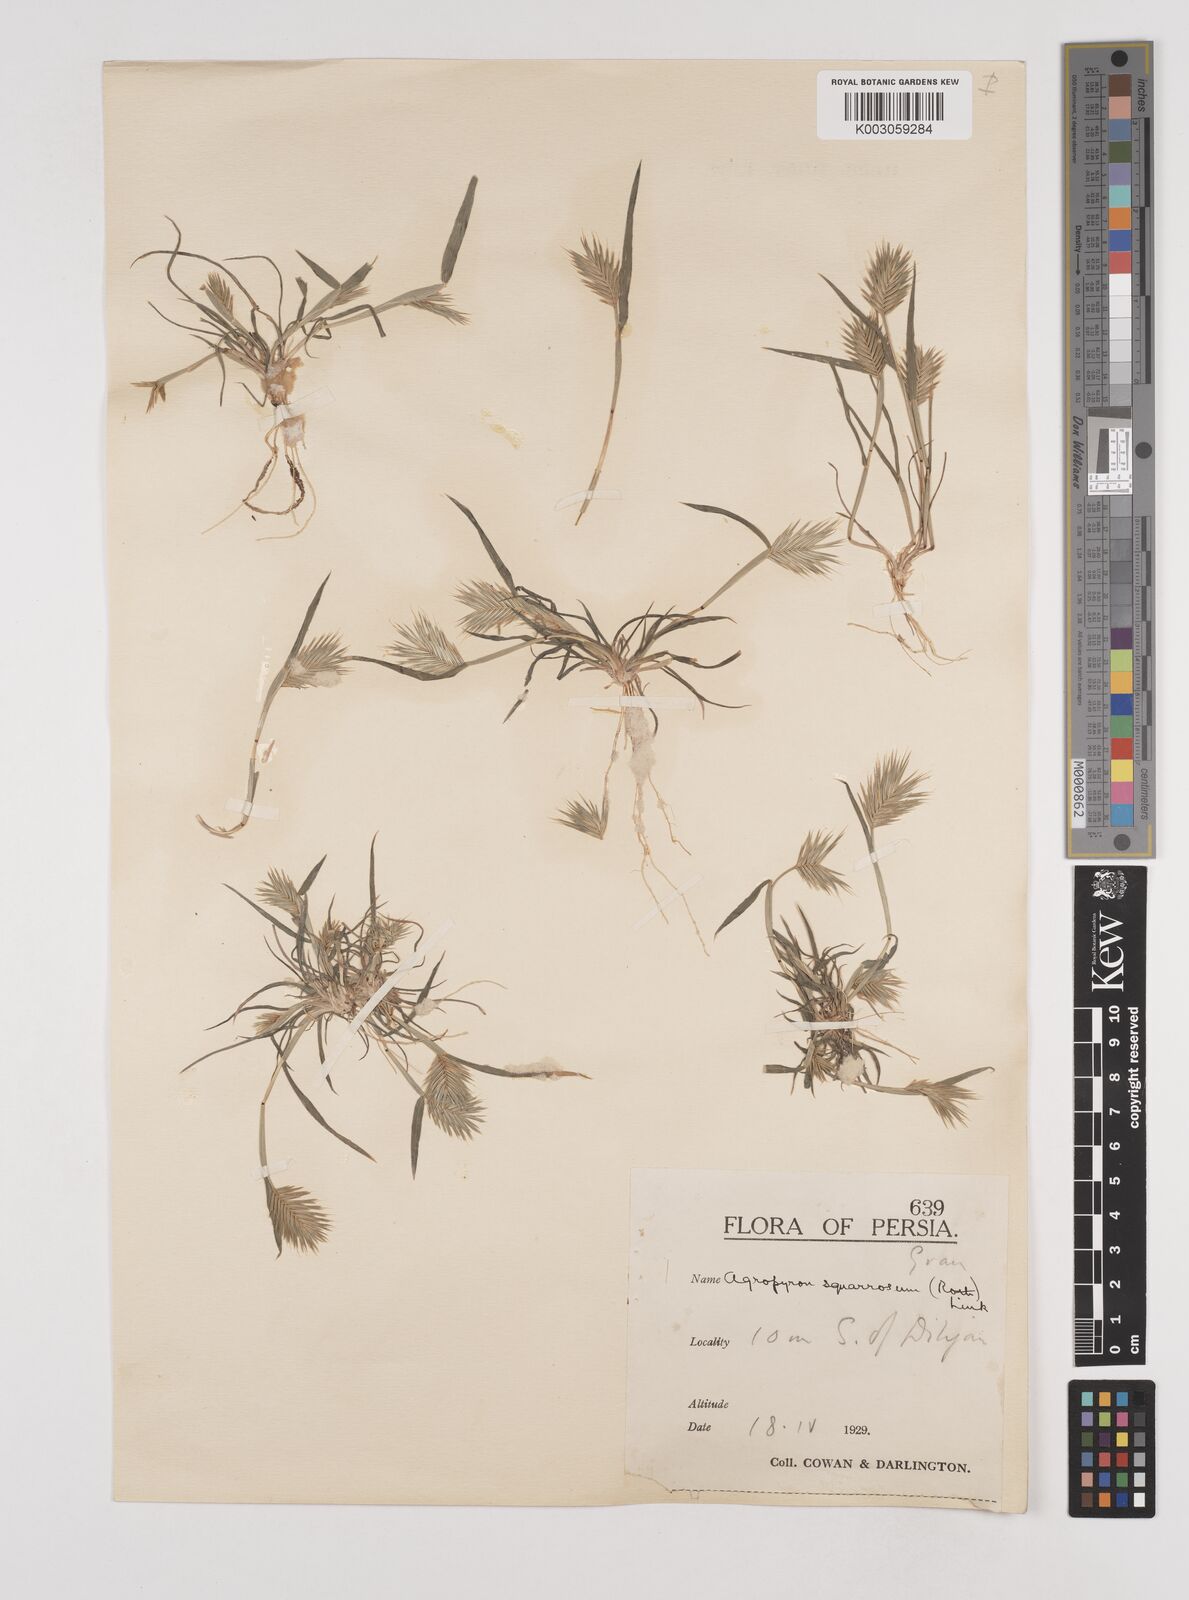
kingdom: Plantae
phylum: Tracheophyta
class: Liliopsida
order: Poales
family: Poaceae
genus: Eremopyrum
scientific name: Eremopyrum bonaepartis
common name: Tapertip false wheatgrass
